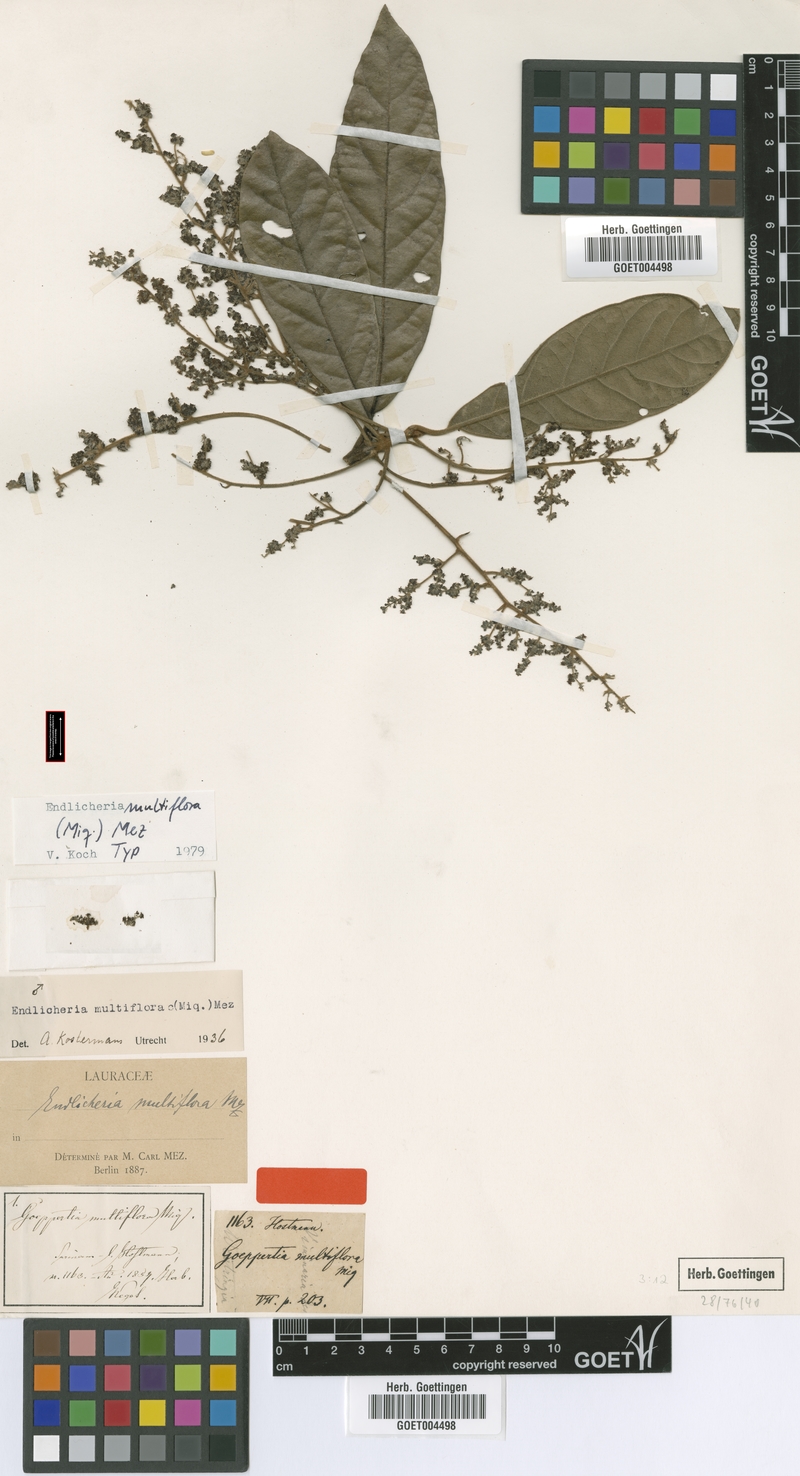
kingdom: Plantae
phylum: Tracheophyta
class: Magnoliopsida
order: Laurales
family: Lauraceae
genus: Endlicheria
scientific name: Endlicheria multiflora
